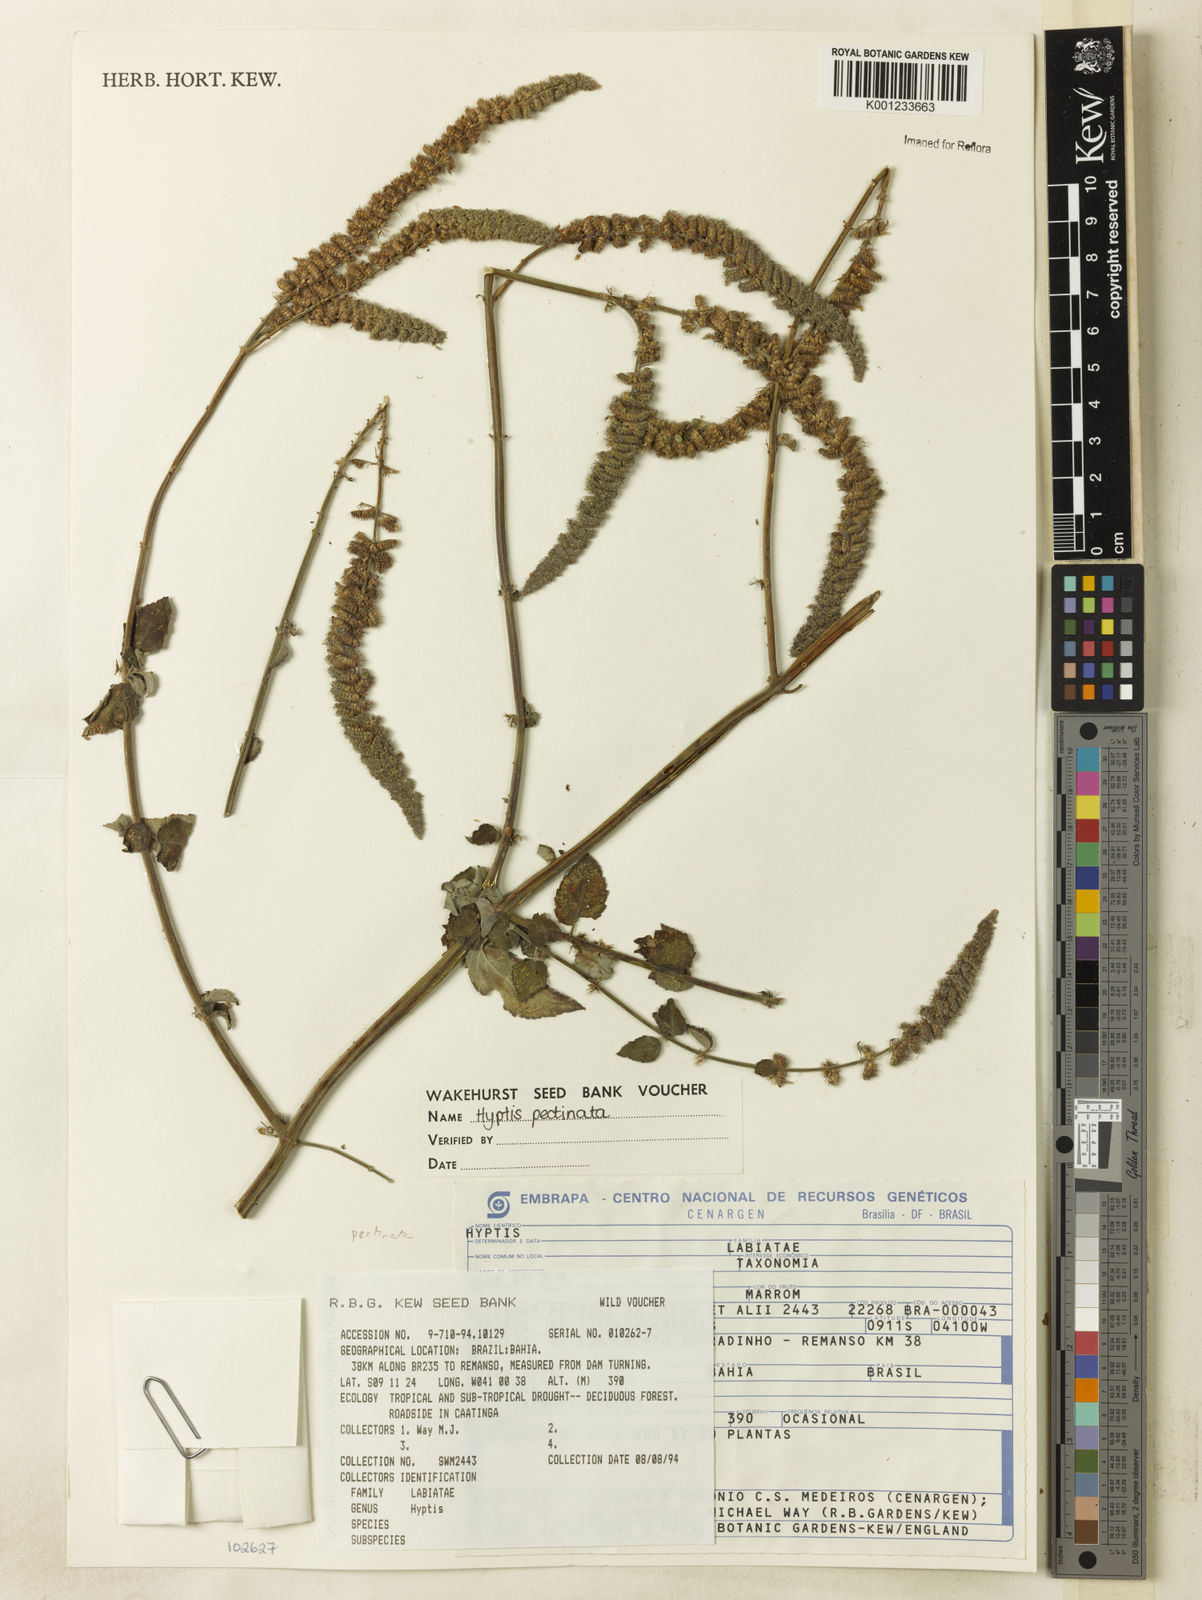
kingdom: Plantae
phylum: Tracheophyta
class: Magnoliopsida
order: Lamiales
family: Lamiaceae
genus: Mesosphaerum
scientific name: Mesosphaerum pectinatum
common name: Comb hyptis
